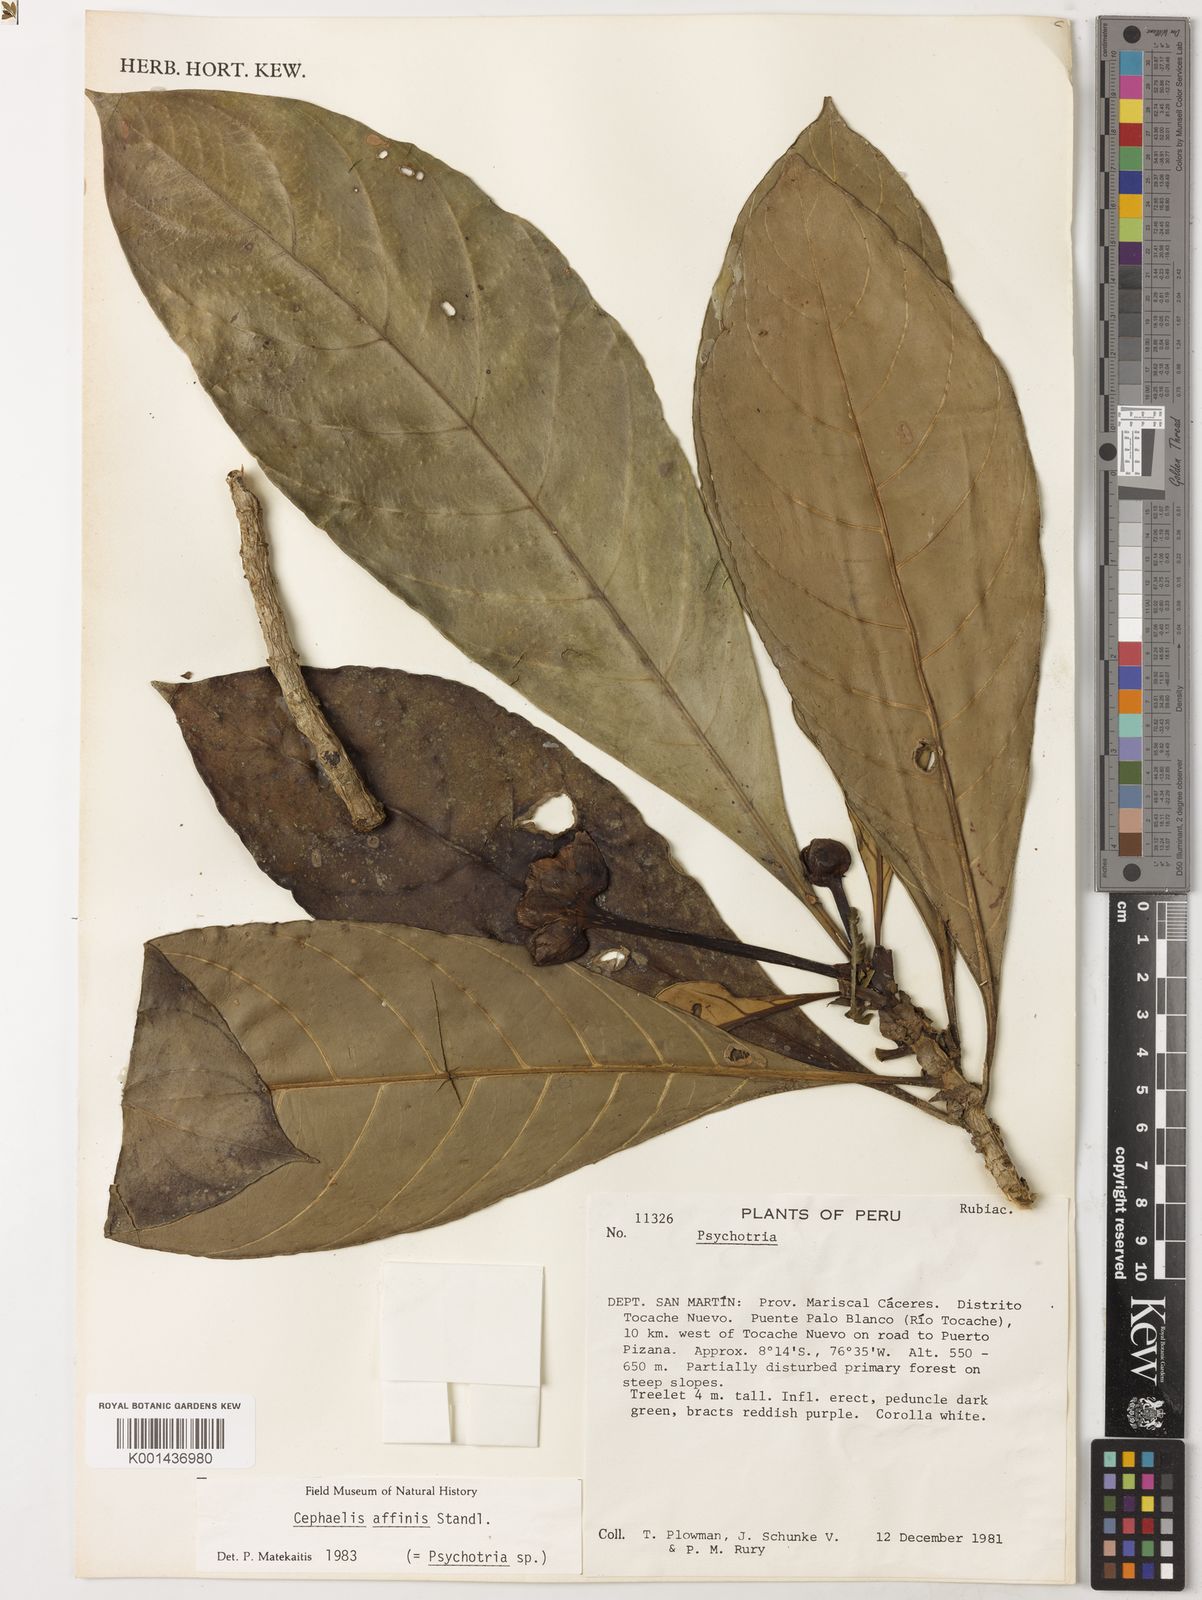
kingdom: Plantae
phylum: Tracheophyta
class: Magnoliopsida
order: Gentianales
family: Rubiaceae
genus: Carapichea
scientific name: Carapichea affinis
